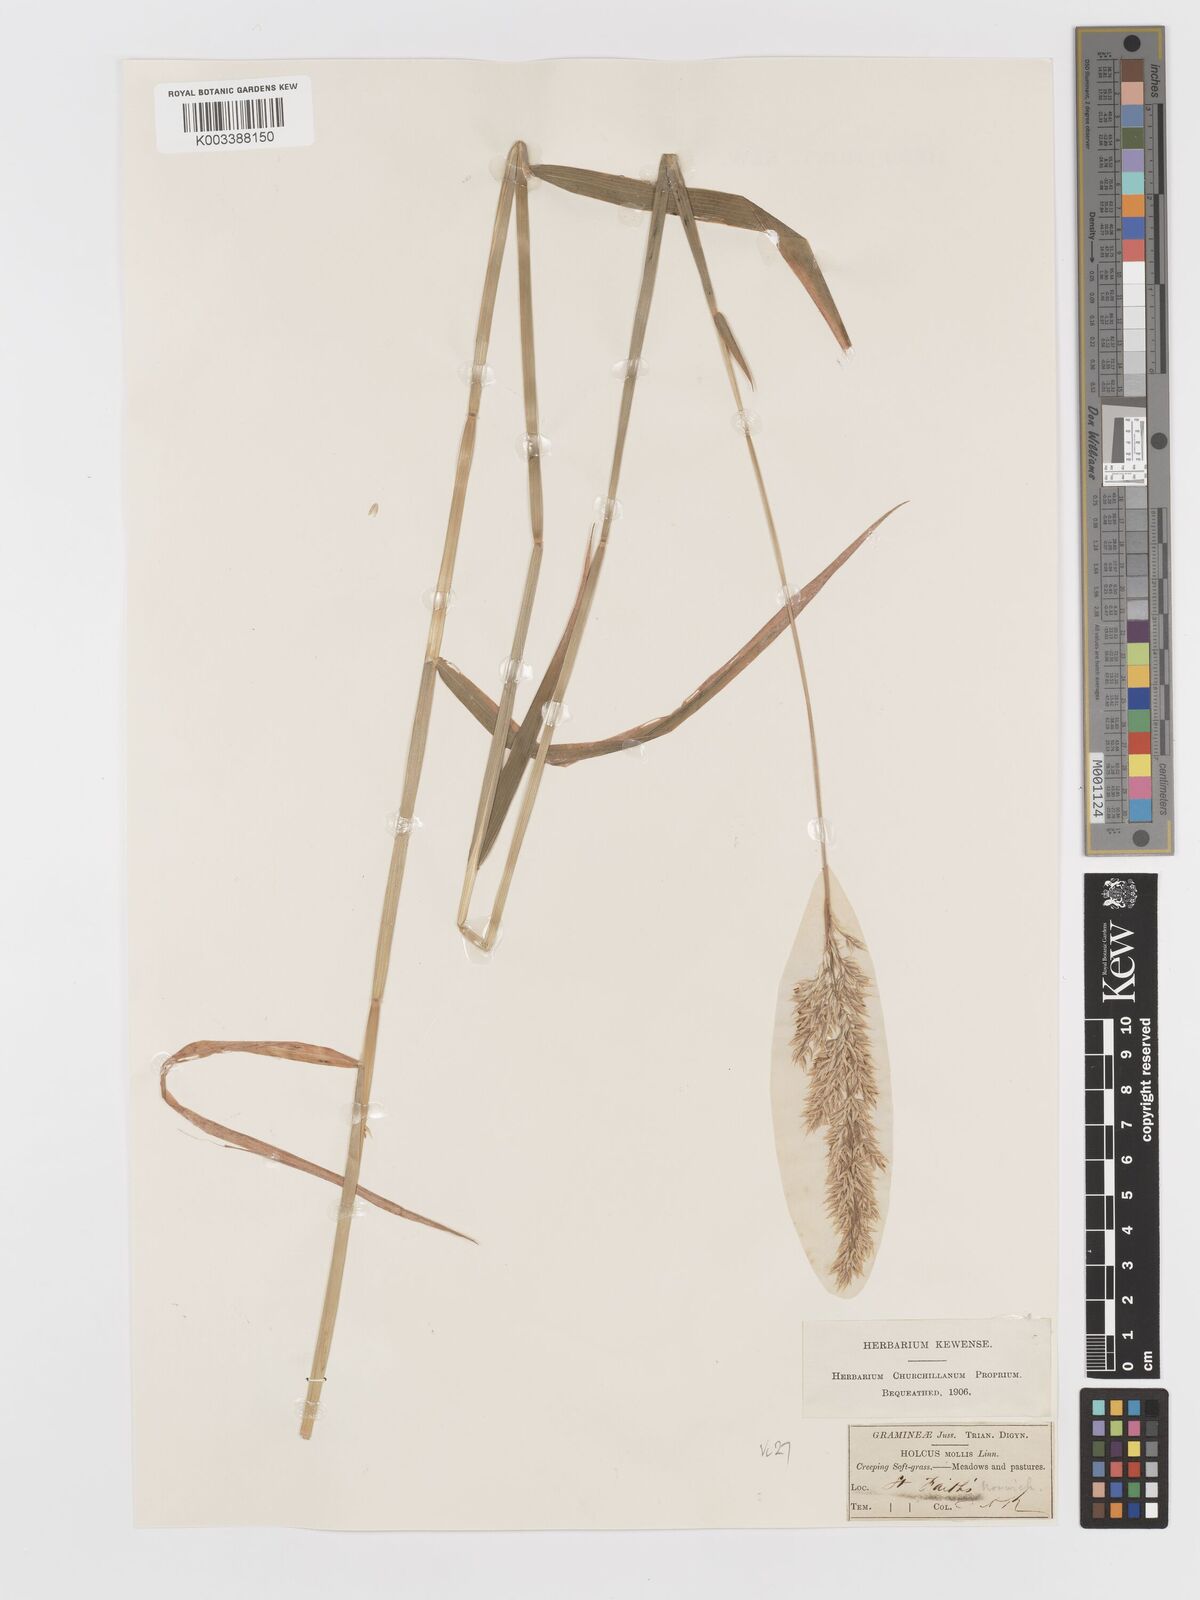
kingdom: Plantae
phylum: Tracheophyta
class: Liliopsida
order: Poales
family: Poaceae
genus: Holcus
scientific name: Holcus mollis
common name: Creeping velvetgrass
